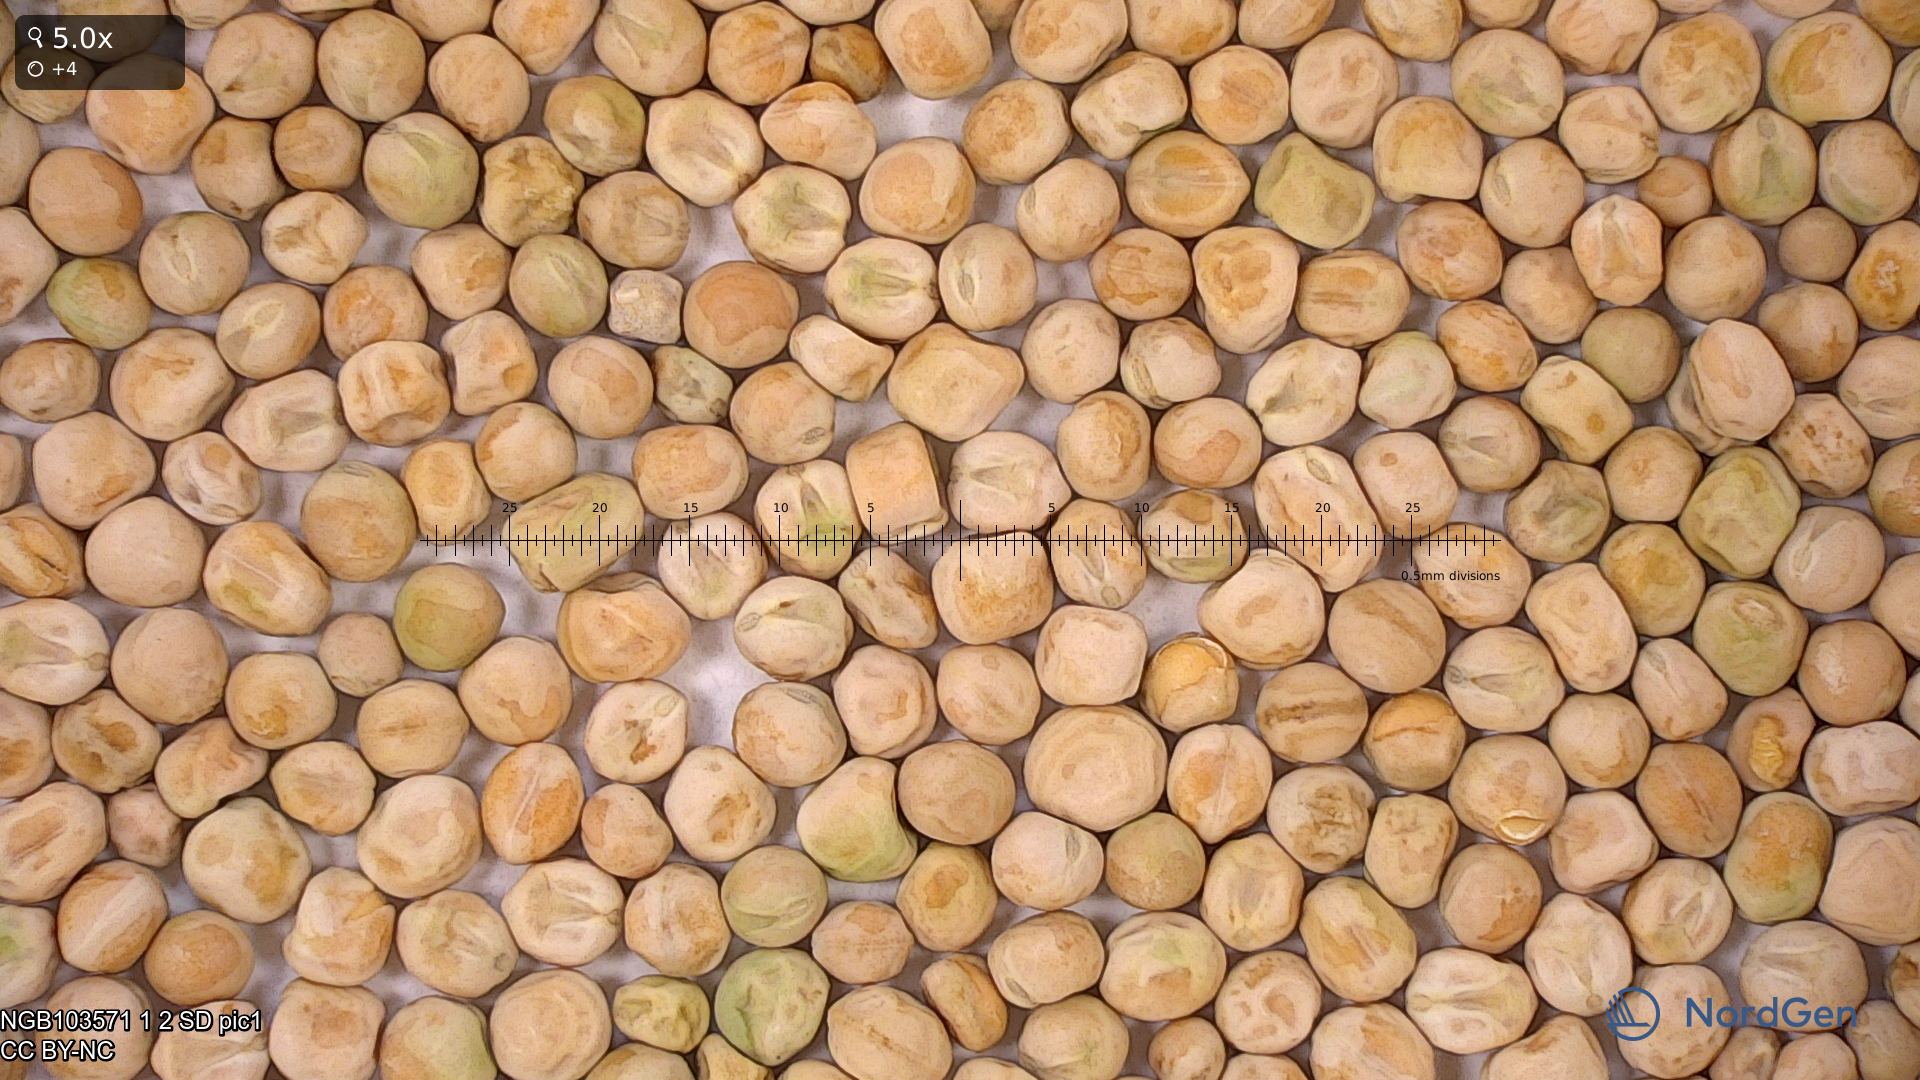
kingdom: Plantae
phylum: Tracheophyta
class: Magnoliopsida
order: Fabales
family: Fabaceae
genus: Lathyrus
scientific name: Lathyrus oleraceus
